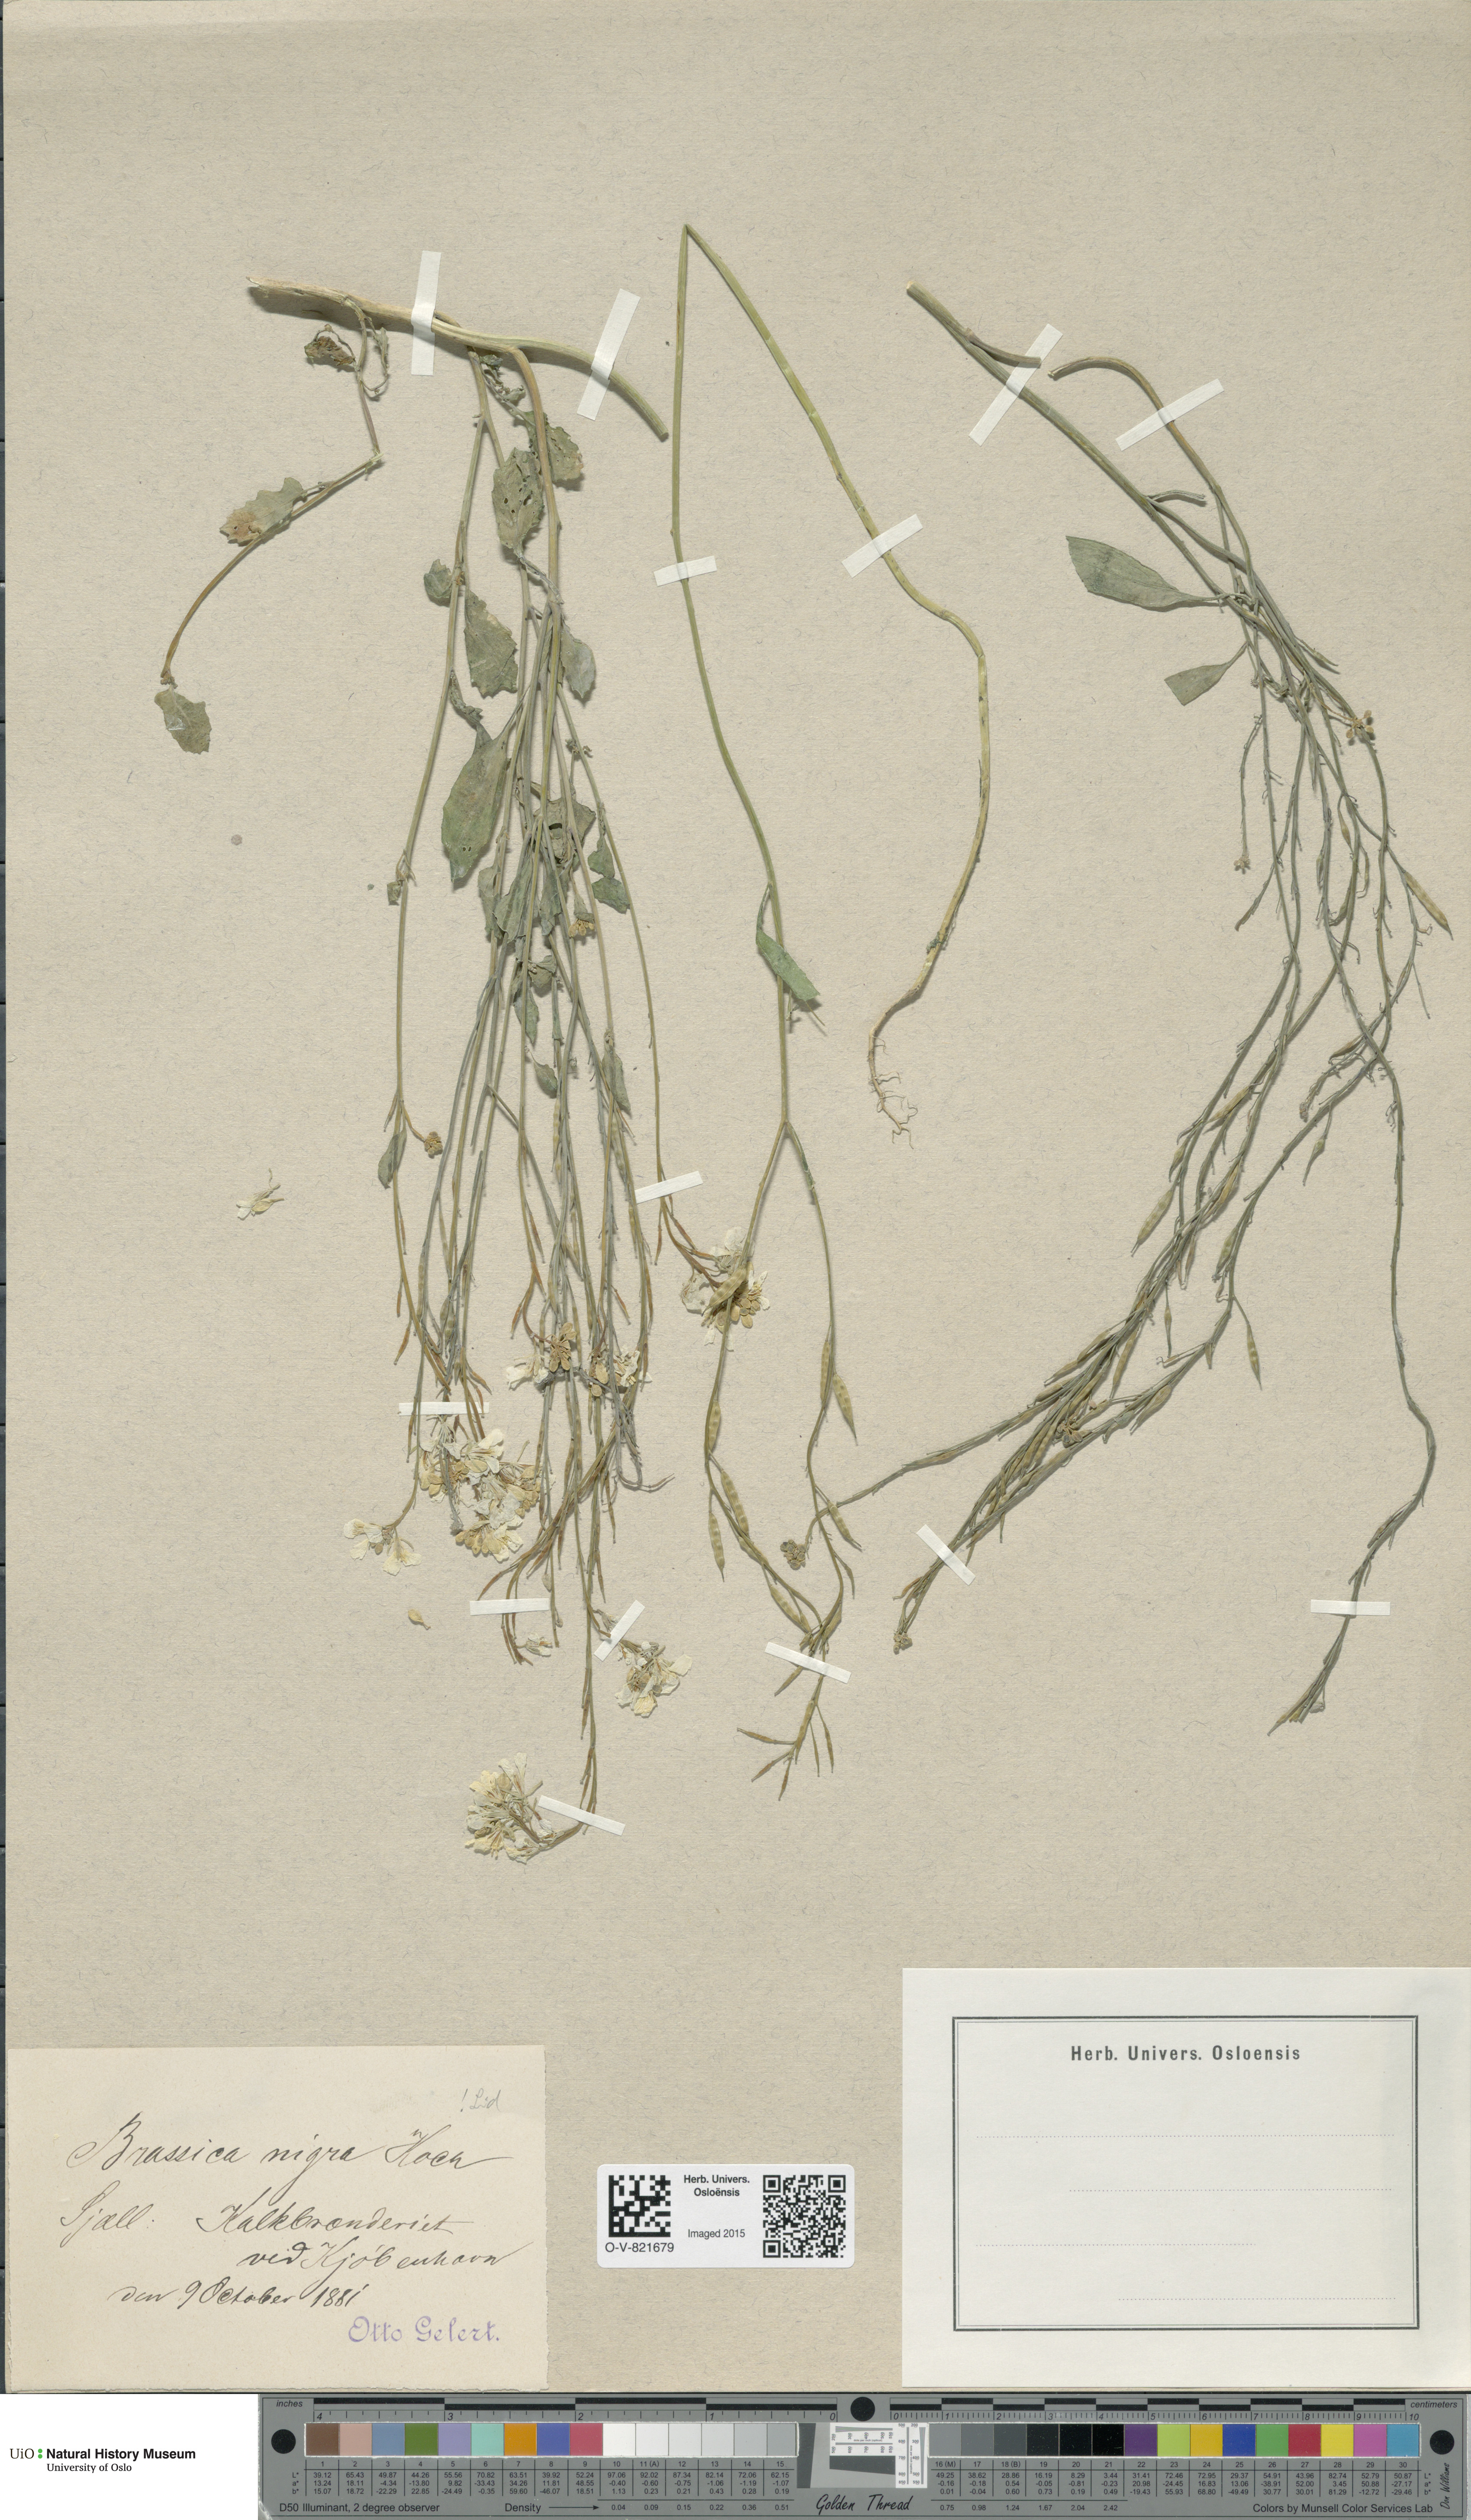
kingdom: Plantae
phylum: Tracheophyta
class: Magnoliopsida
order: Brassicales
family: Brassicaceae
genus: Brassica
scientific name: Brassica nigra
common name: Black mustard
